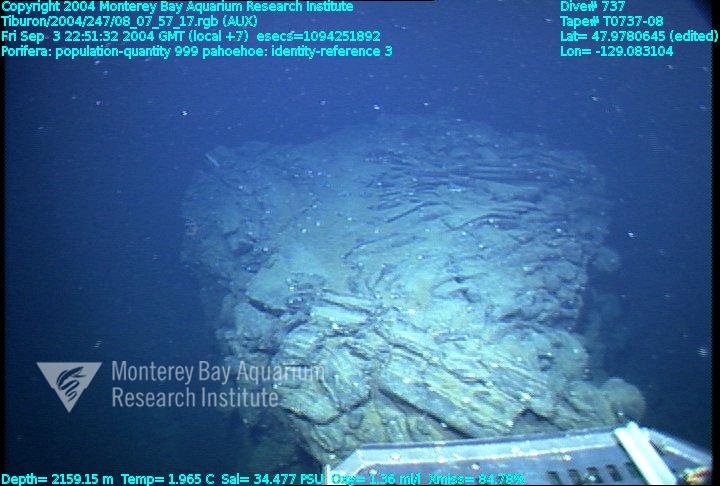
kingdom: Animalia
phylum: Porifera
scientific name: Porifera
